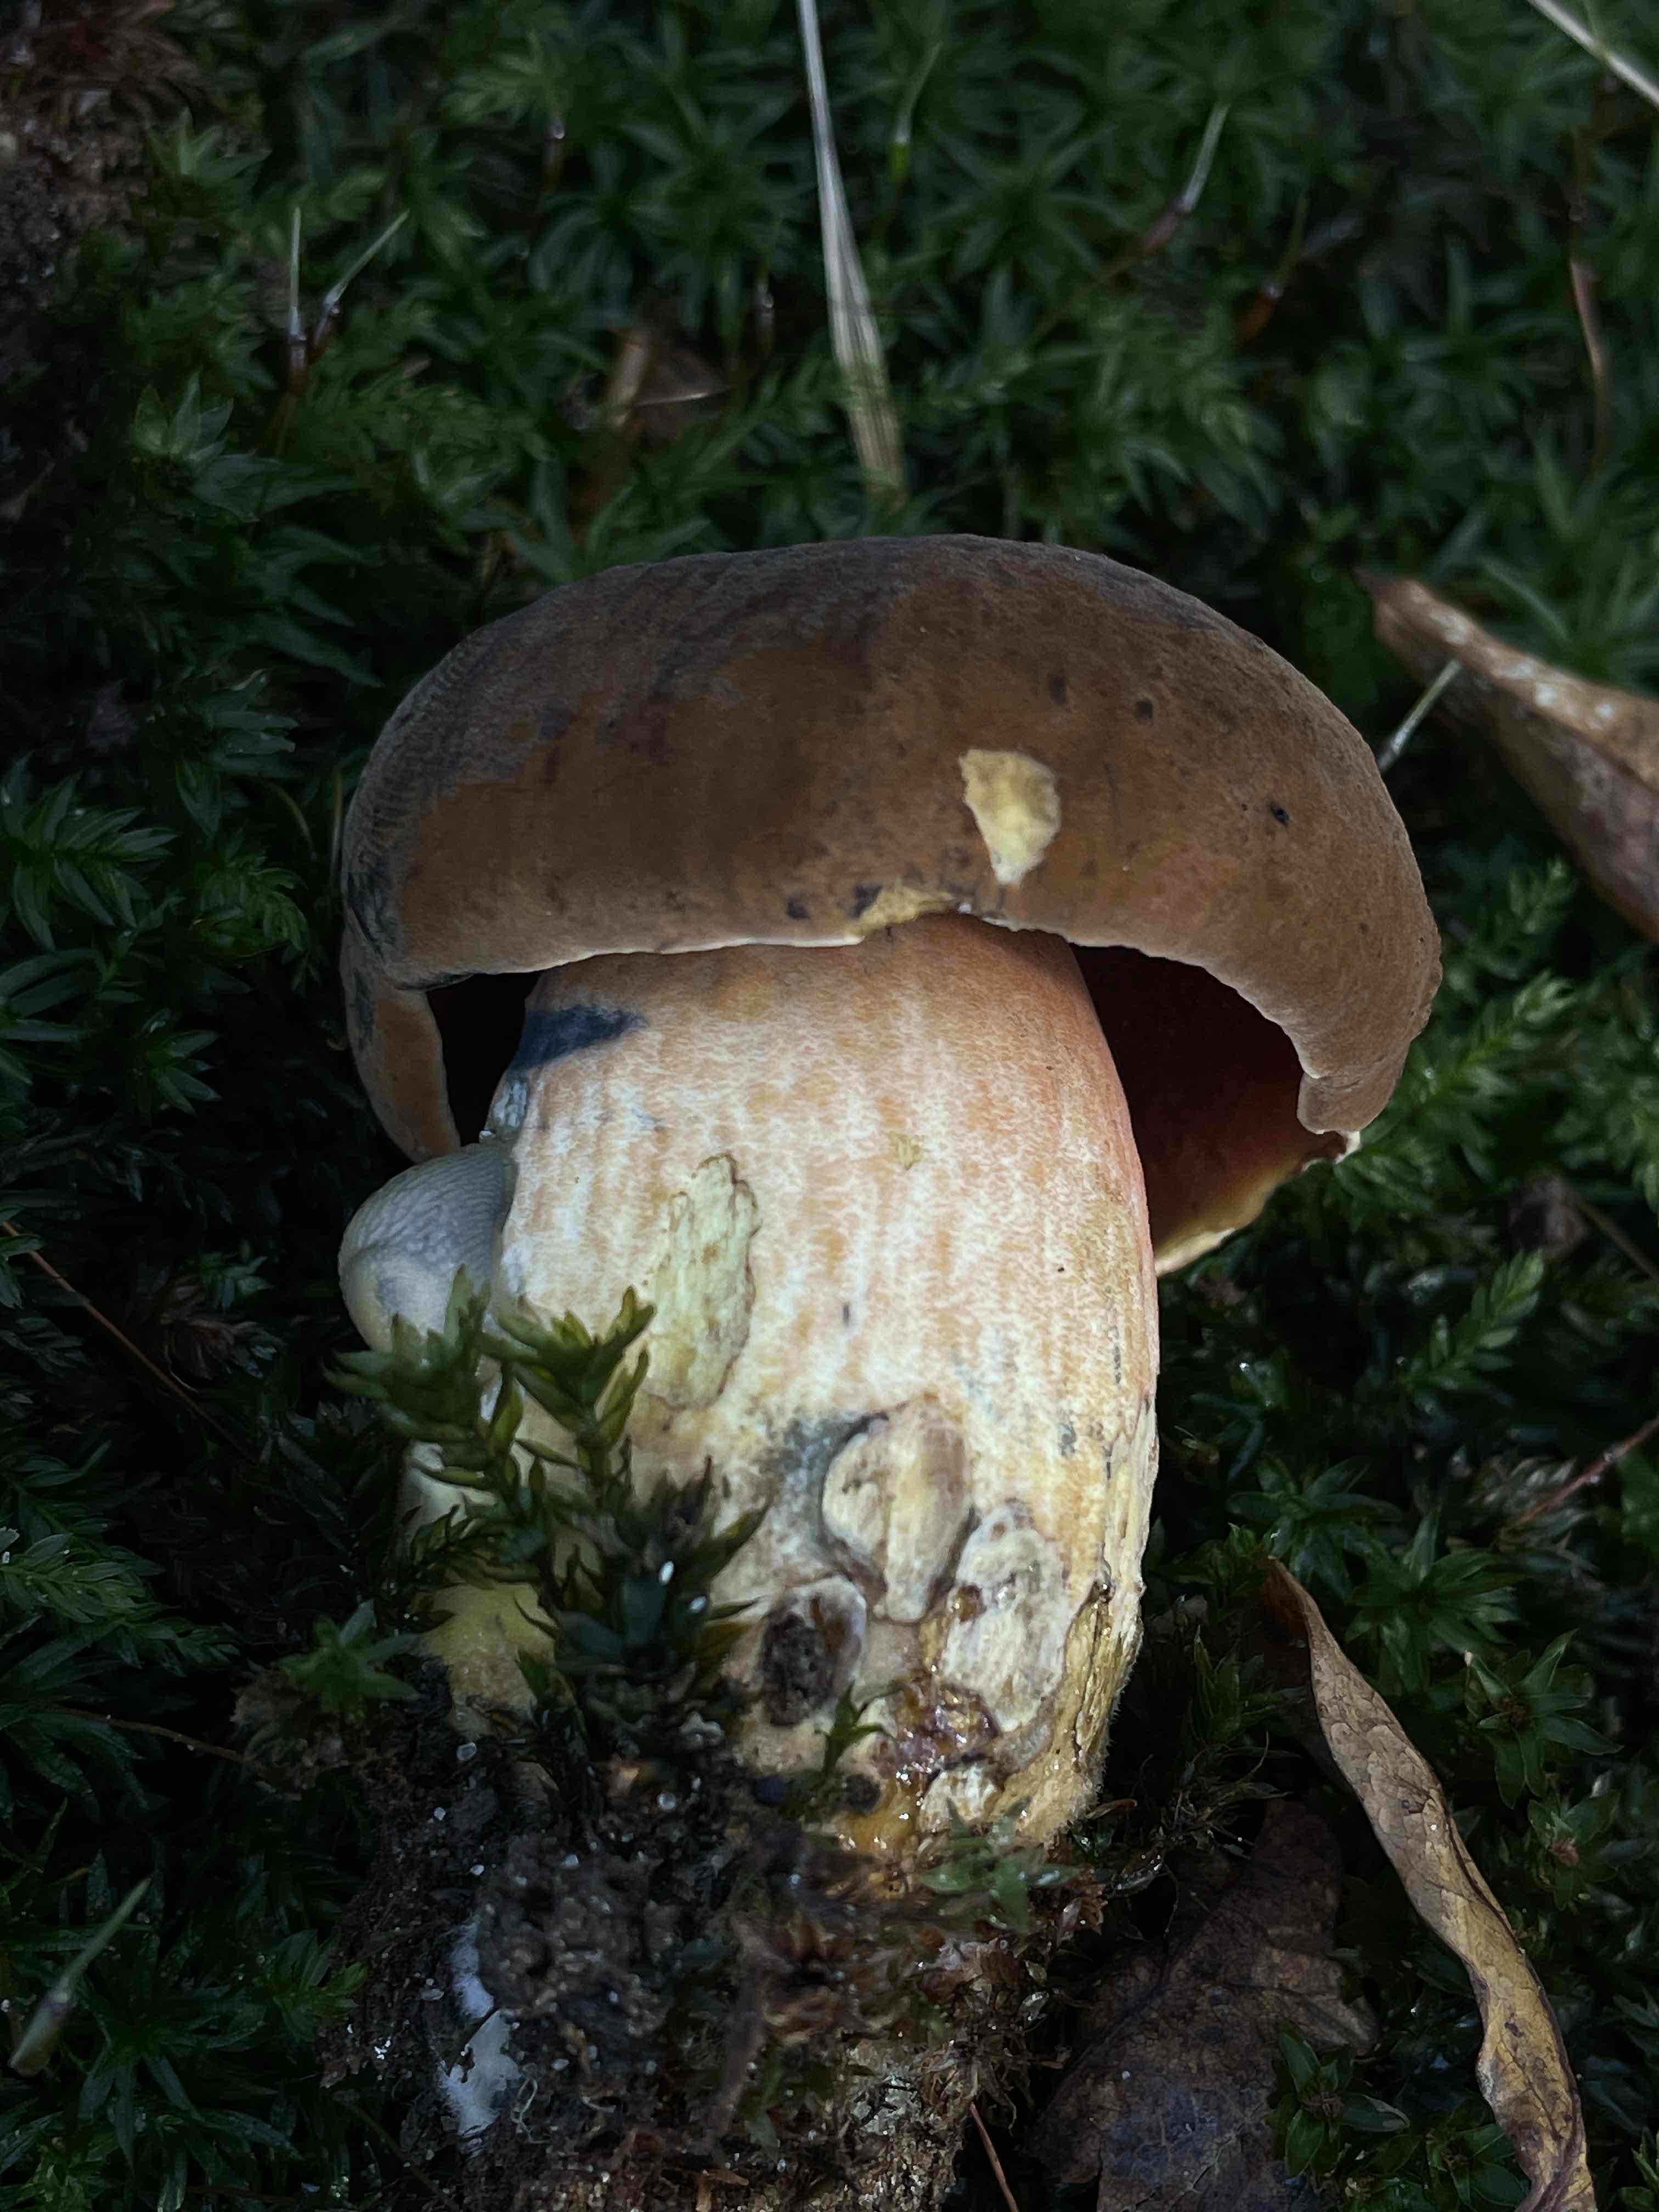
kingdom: Fungi
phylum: Basidiomycota
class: Agaricomycetes
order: Boletales
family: Boletaceae
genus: Neoboletus
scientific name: Neoboletus erythropus
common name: punktstokket indigorørhat
